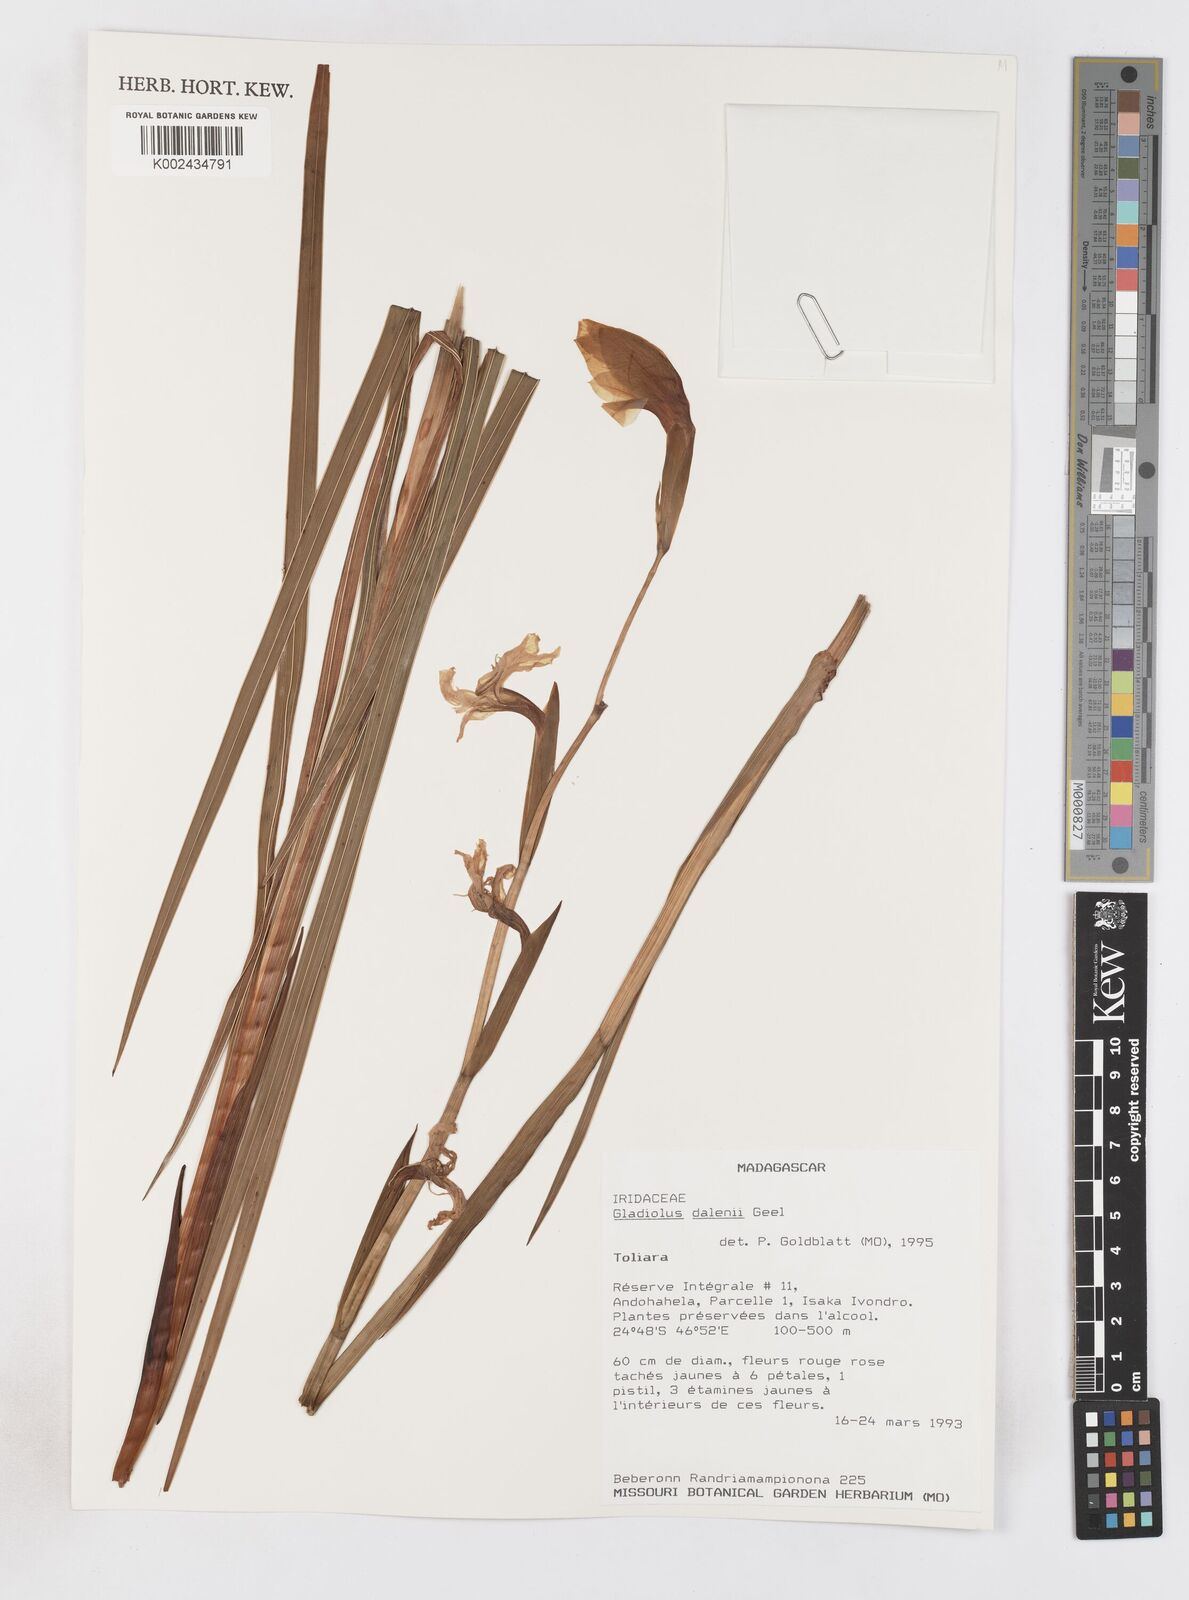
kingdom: Plantae
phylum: Tracheophyta
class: Liliopsida
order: Asparagales
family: Iridaceae
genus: Gladiolus
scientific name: Gladiolus dalenii
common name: Cornflag
